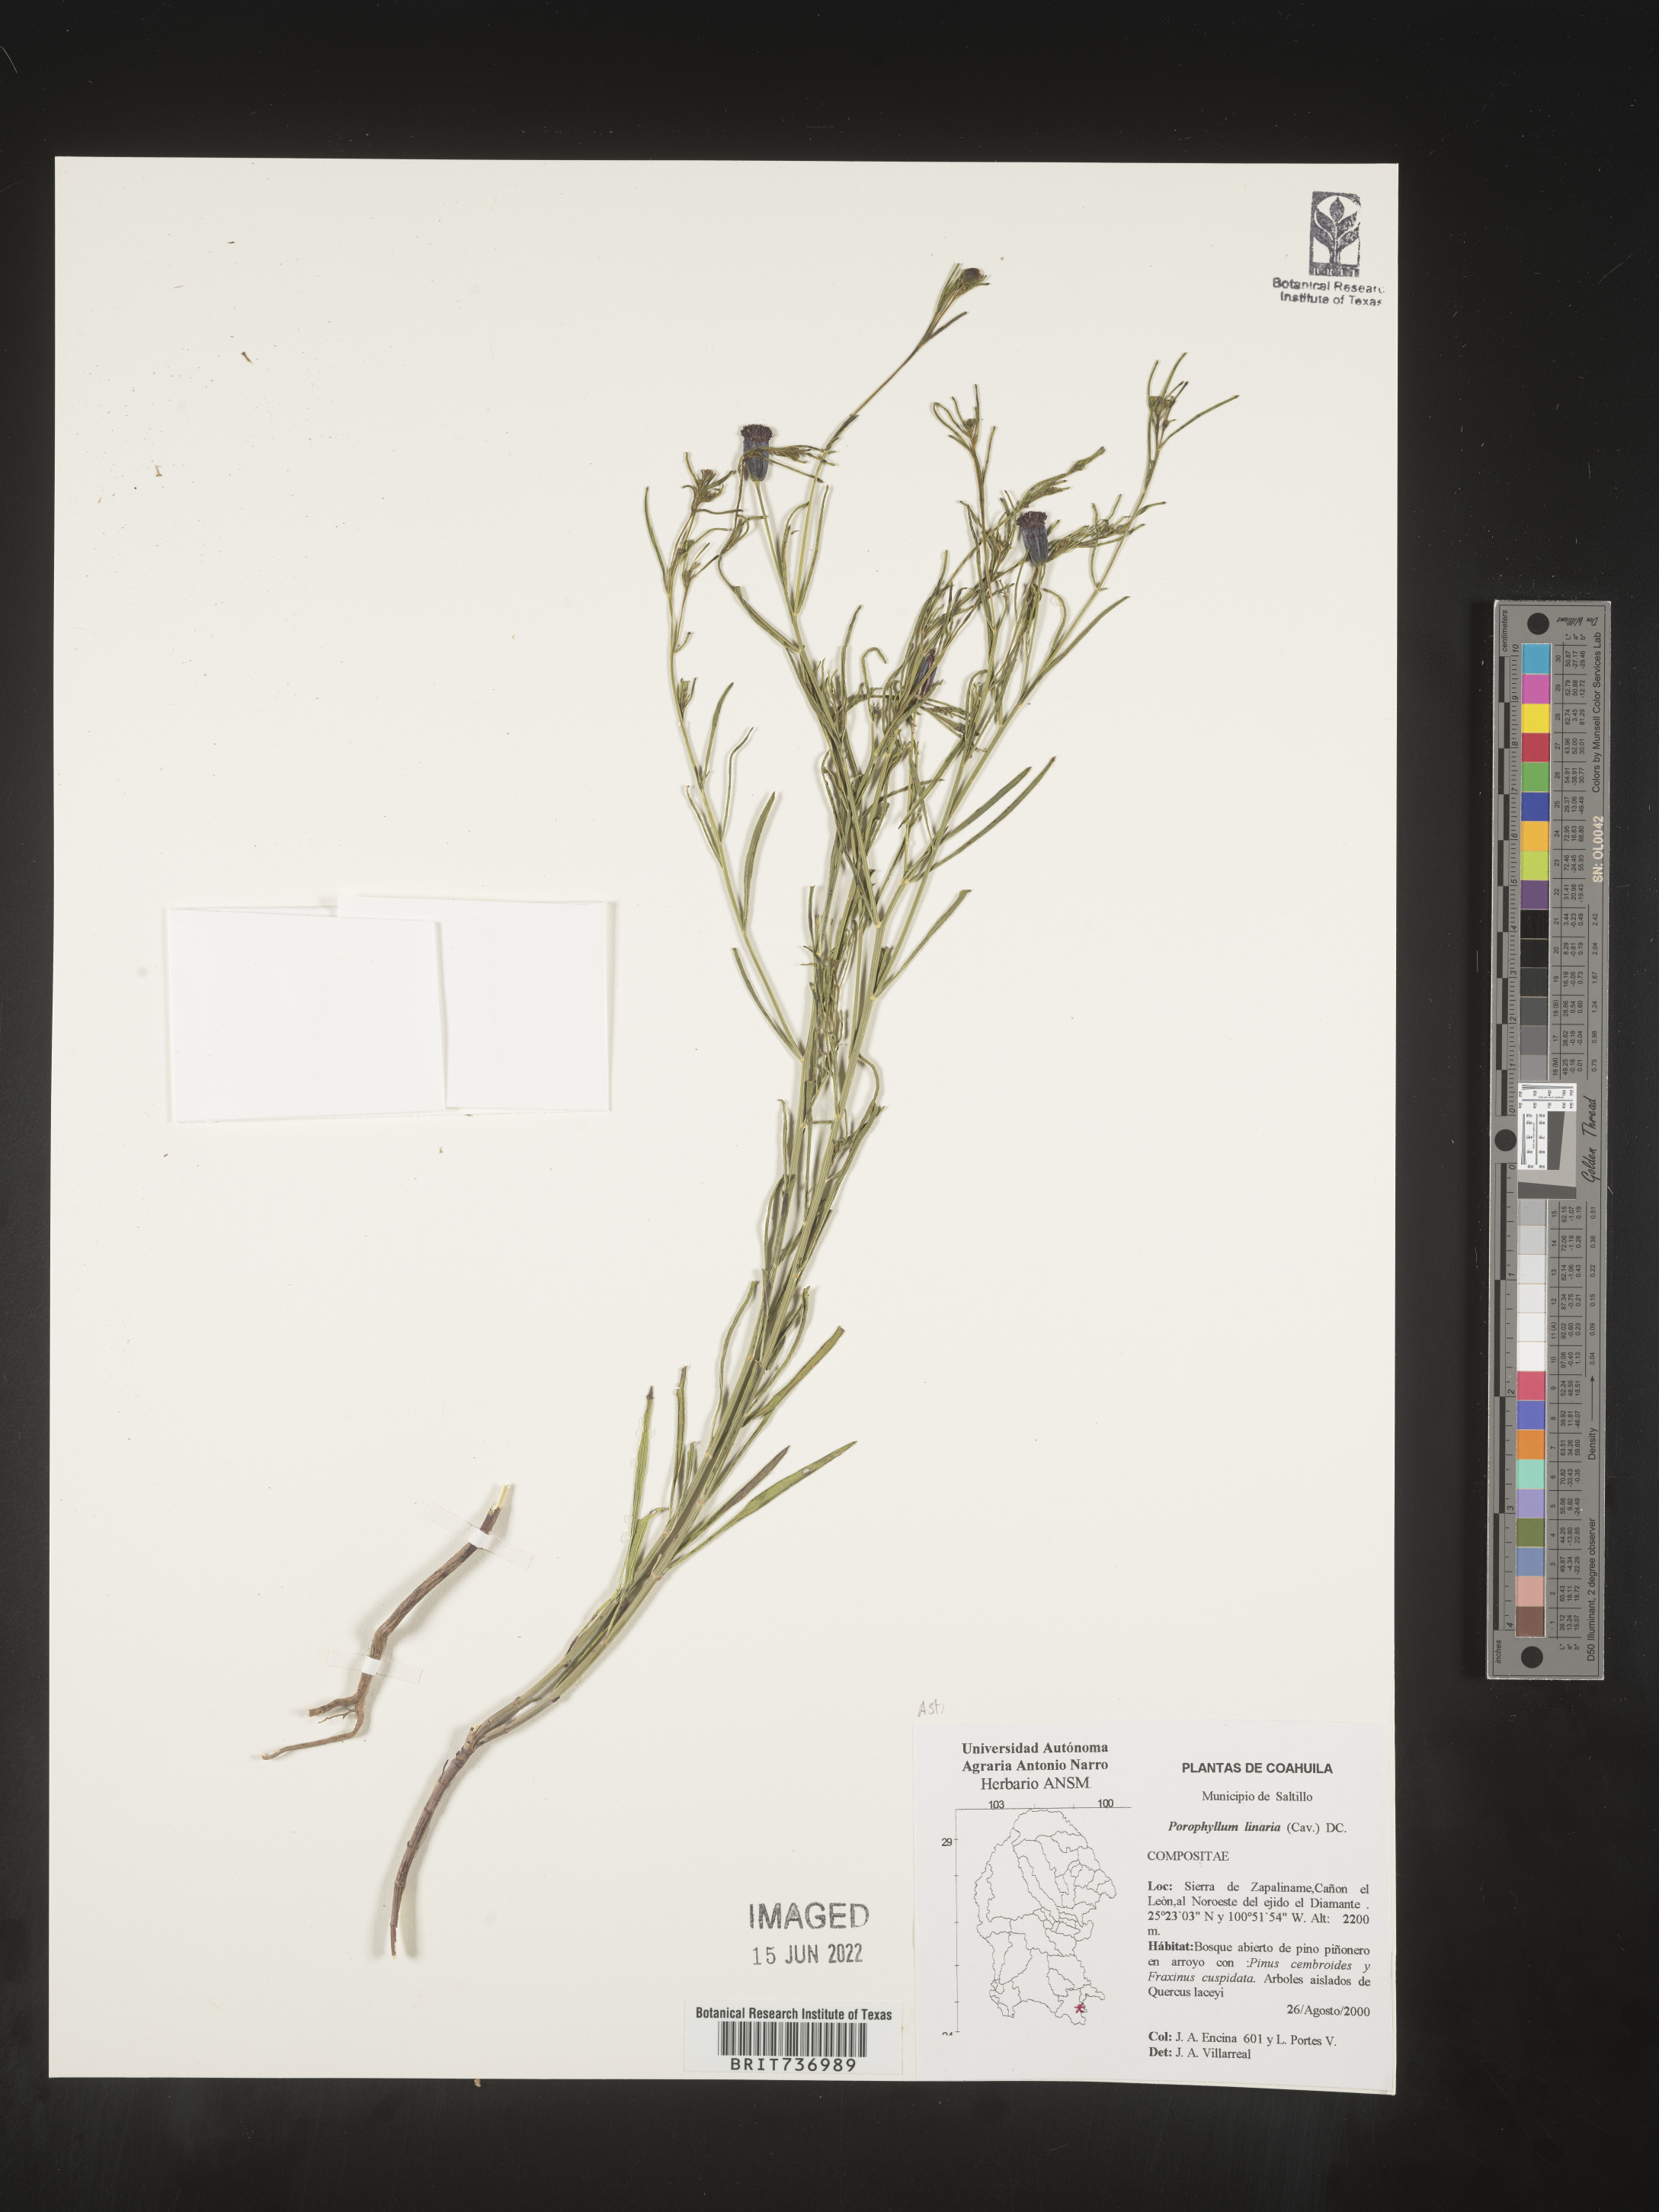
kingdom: Plantae
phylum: Tracheophyta
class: Magnoliopsida
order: Asterales
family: Asteraceae
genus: Porophyllum
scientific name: Porophyllum
